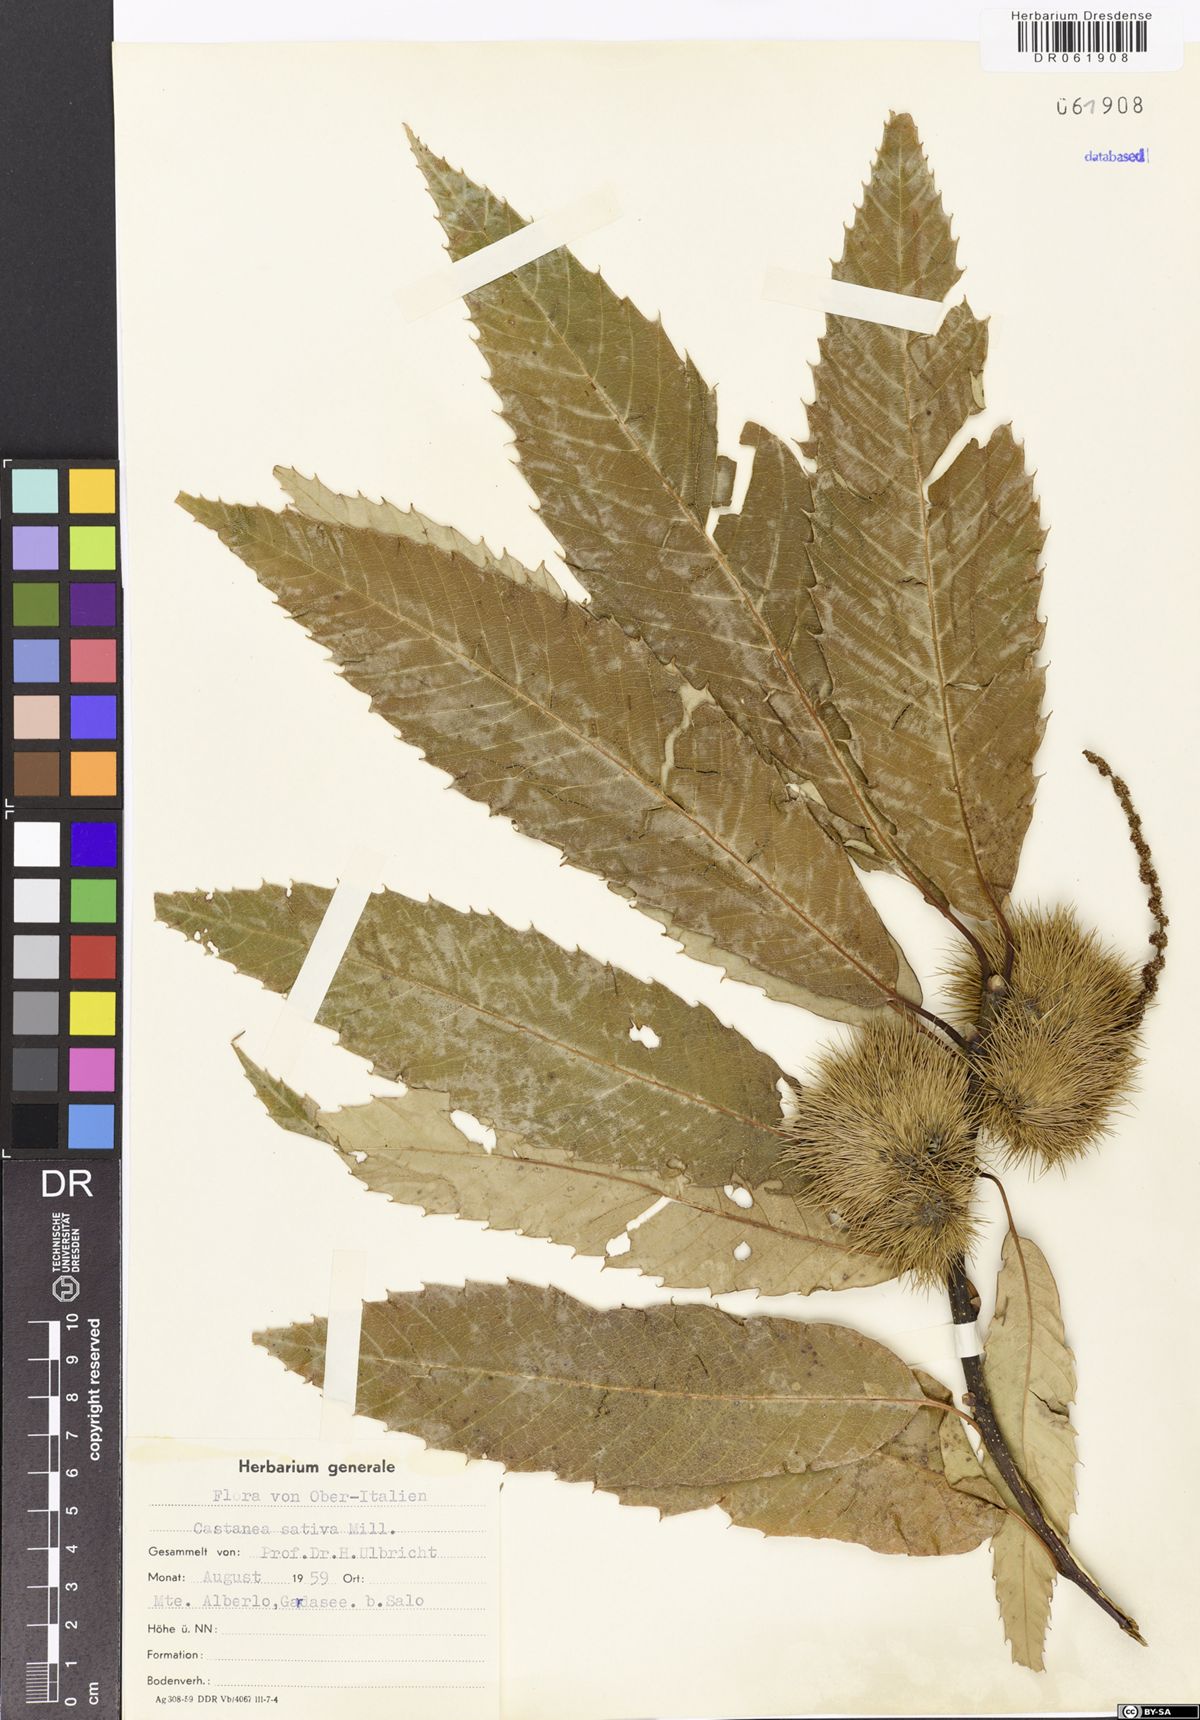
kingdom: Plantae
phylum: Tracheophyta
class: Magnoliopsida
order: Fagales
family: Fagaceae
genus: Castanea
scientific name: Castanea sativa
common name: Sweet chestnut
